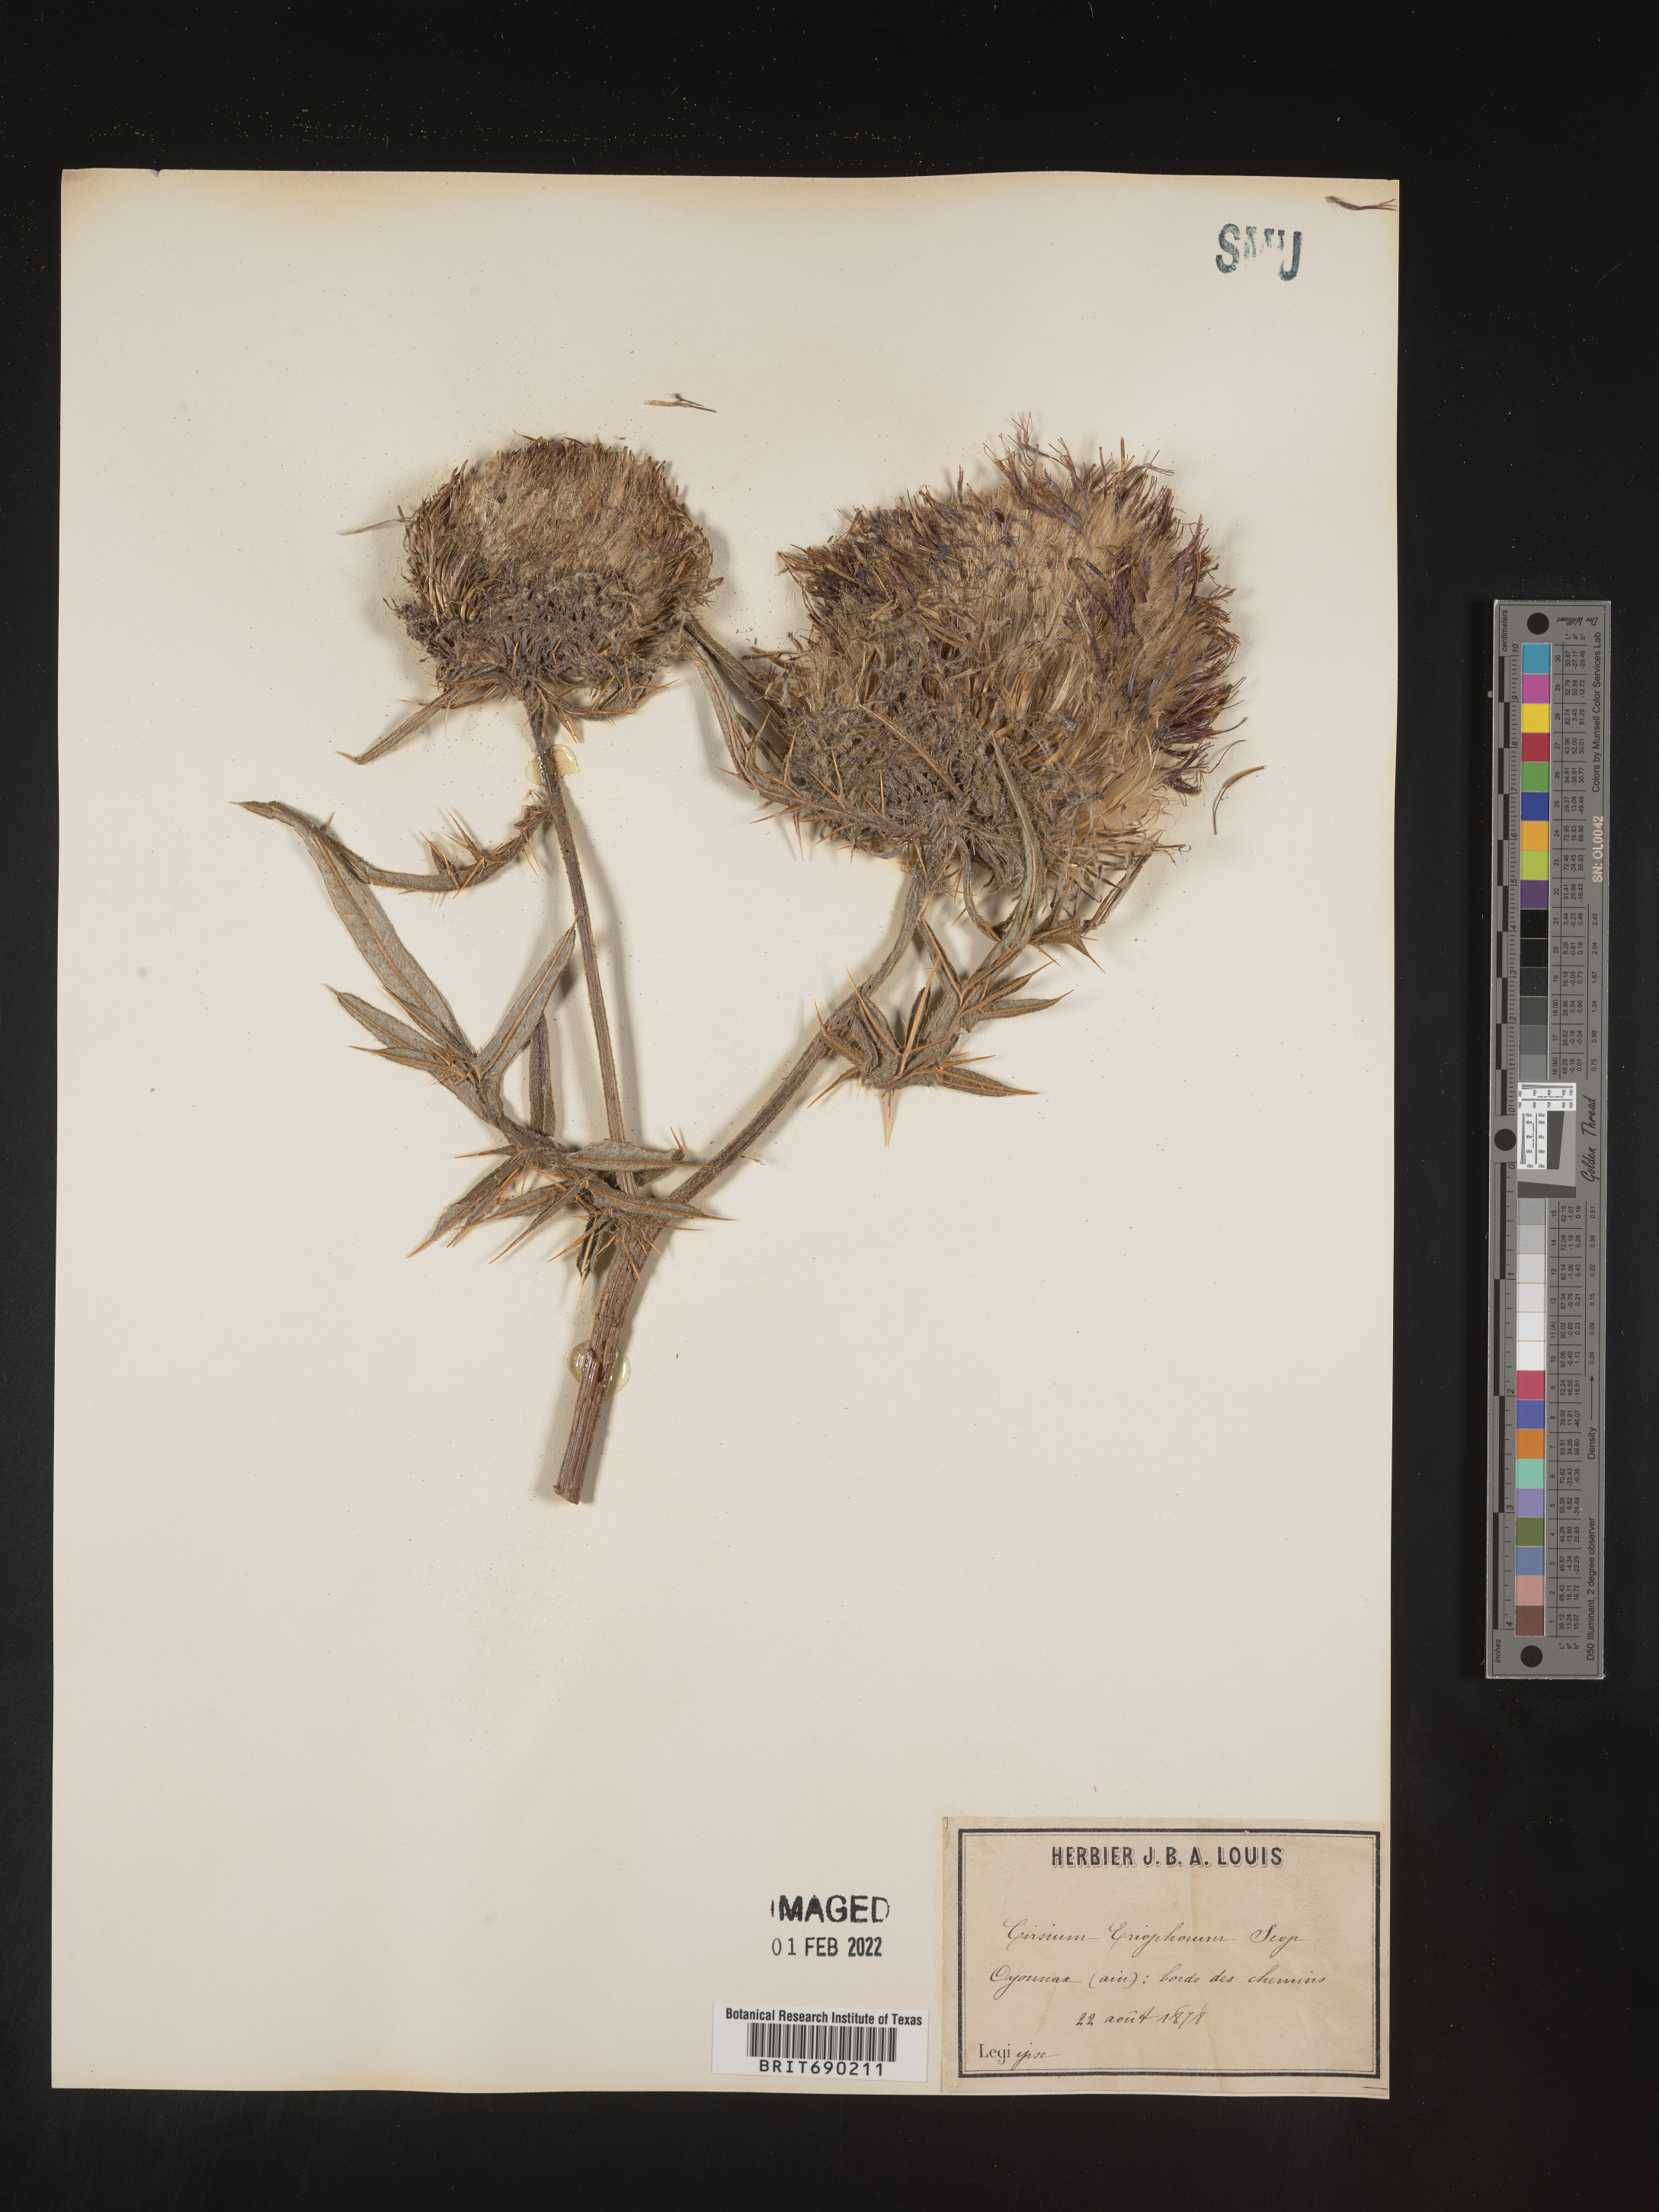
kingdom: Plantae
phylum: Tracheophyta
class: Magnoliopsida
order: Asterales
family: Asteraceae
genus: Cirsium
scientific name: Cirsium
